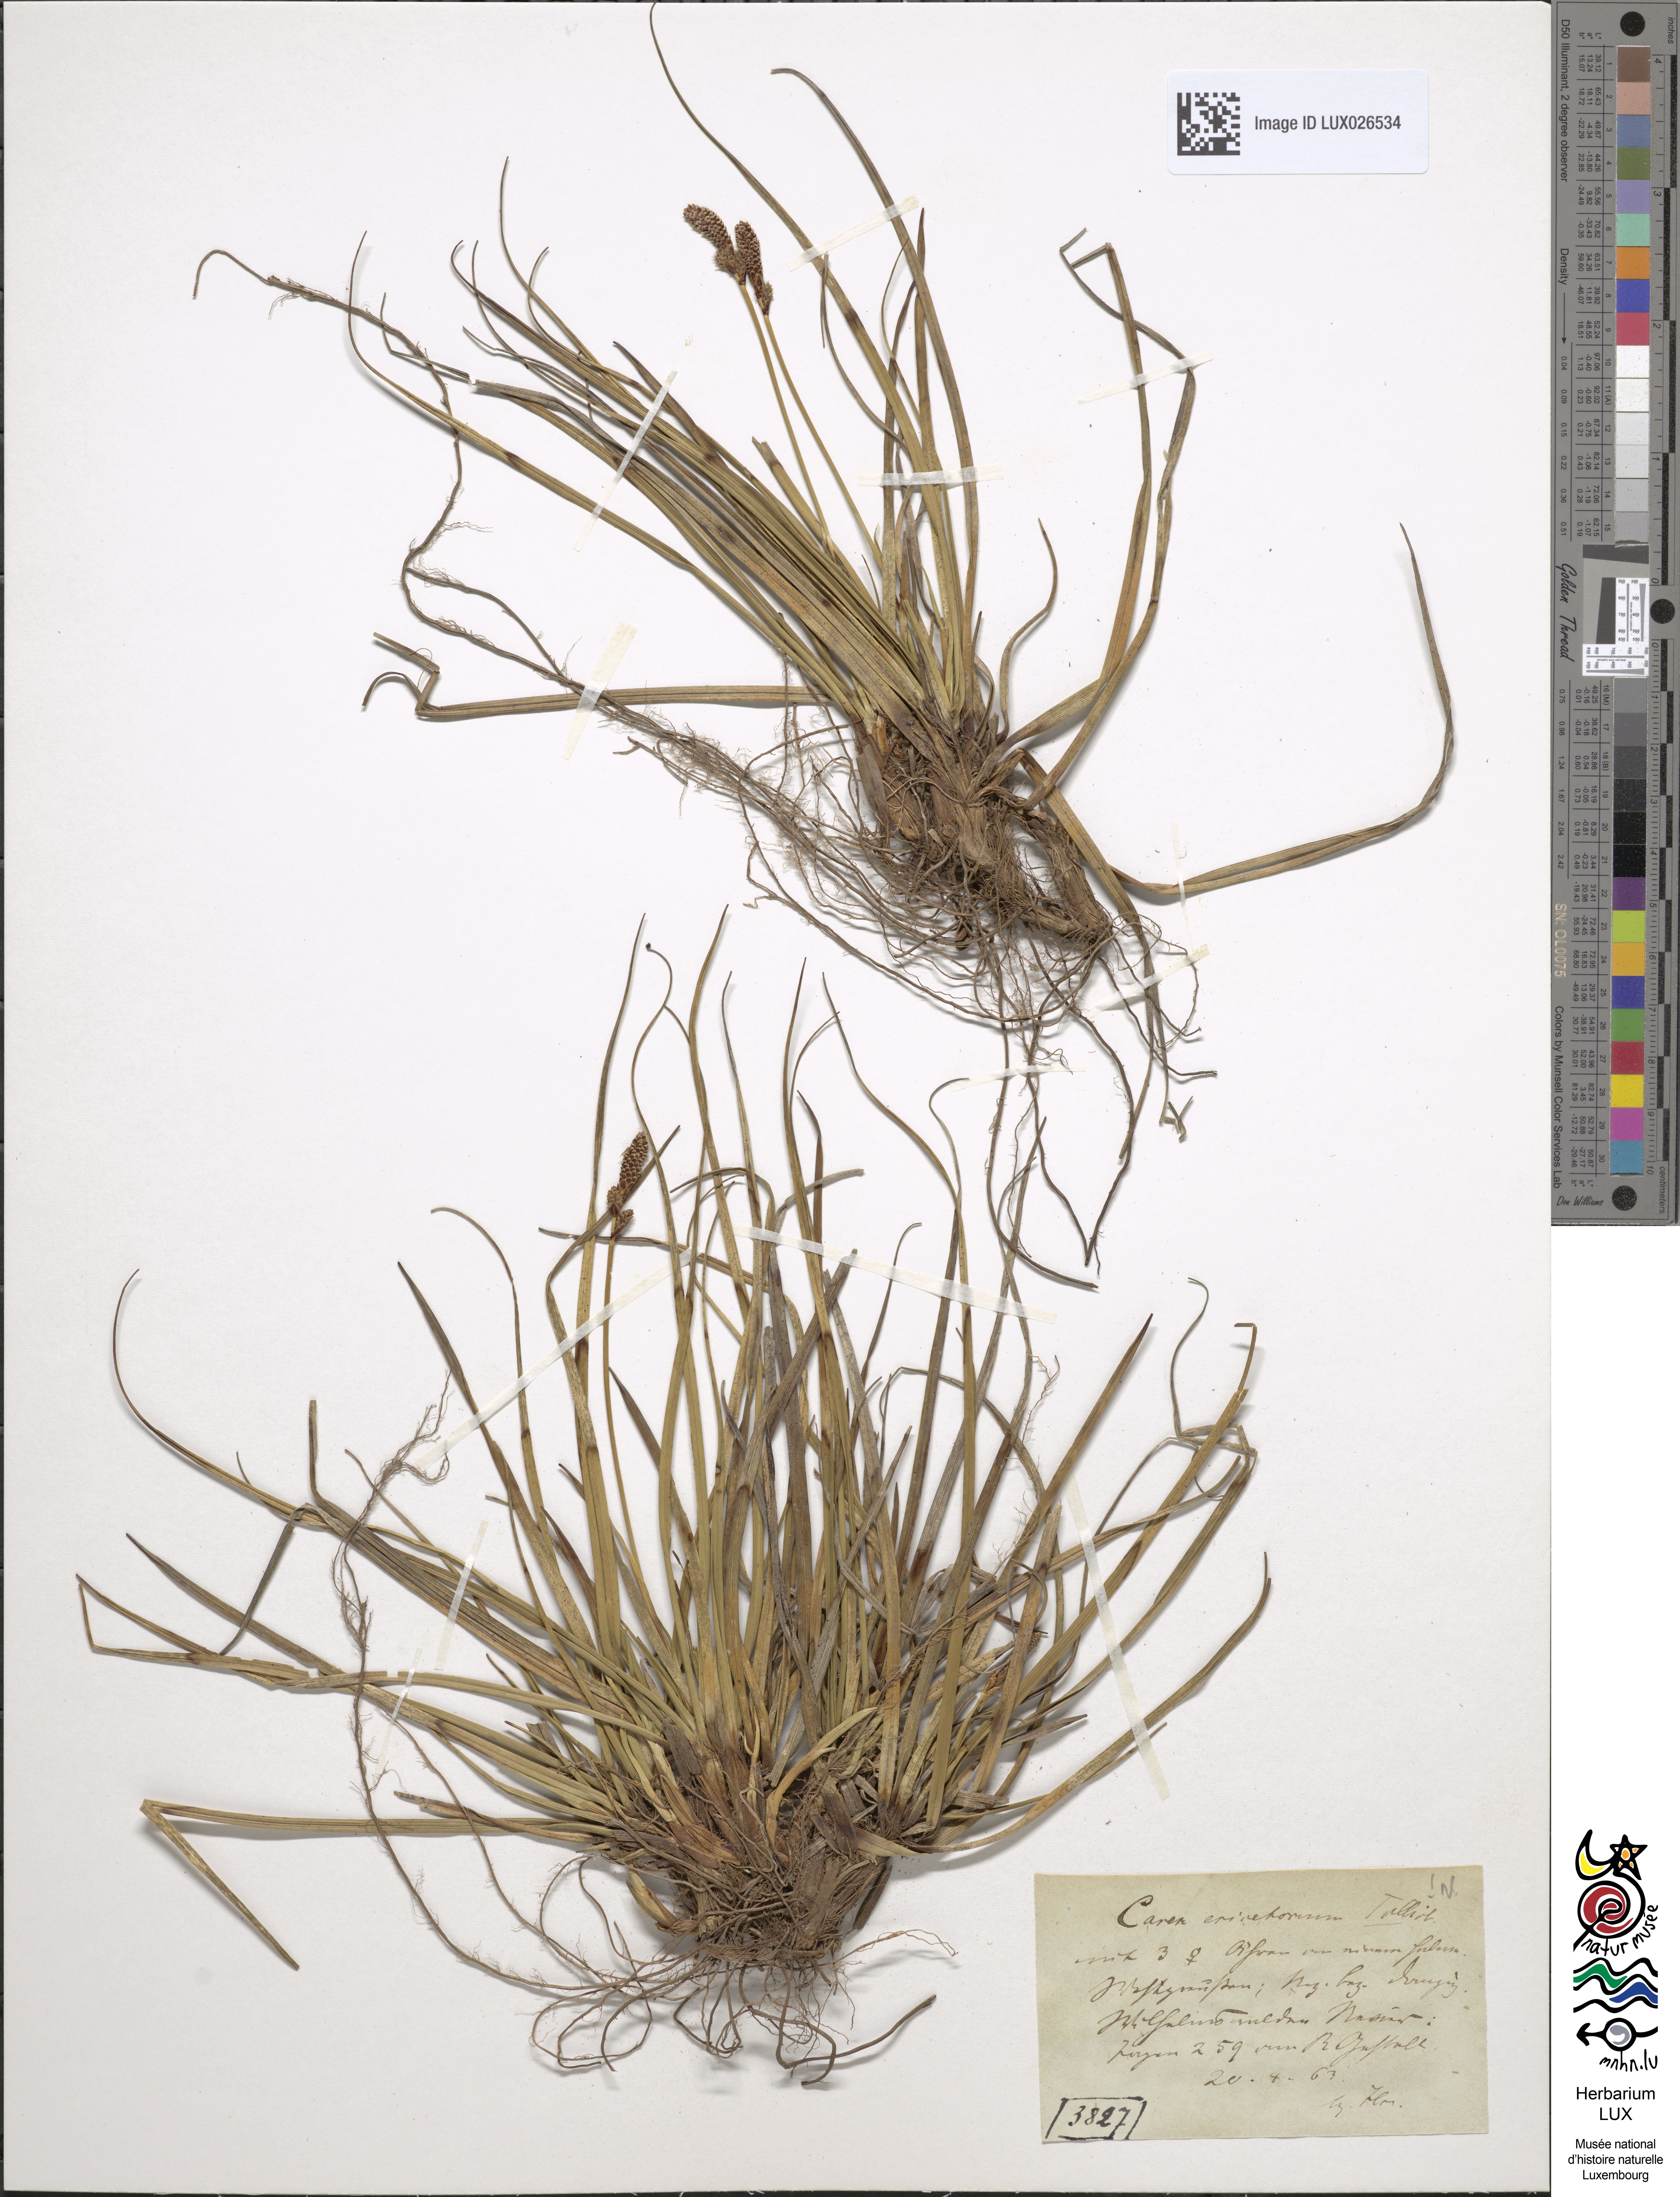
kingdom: Plantae
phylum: Tracheophyta
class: Liliopsida
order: Poales
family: Cyperaceae
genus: Carex
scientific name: Carex ericetorum
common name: Rare spring-sedge
